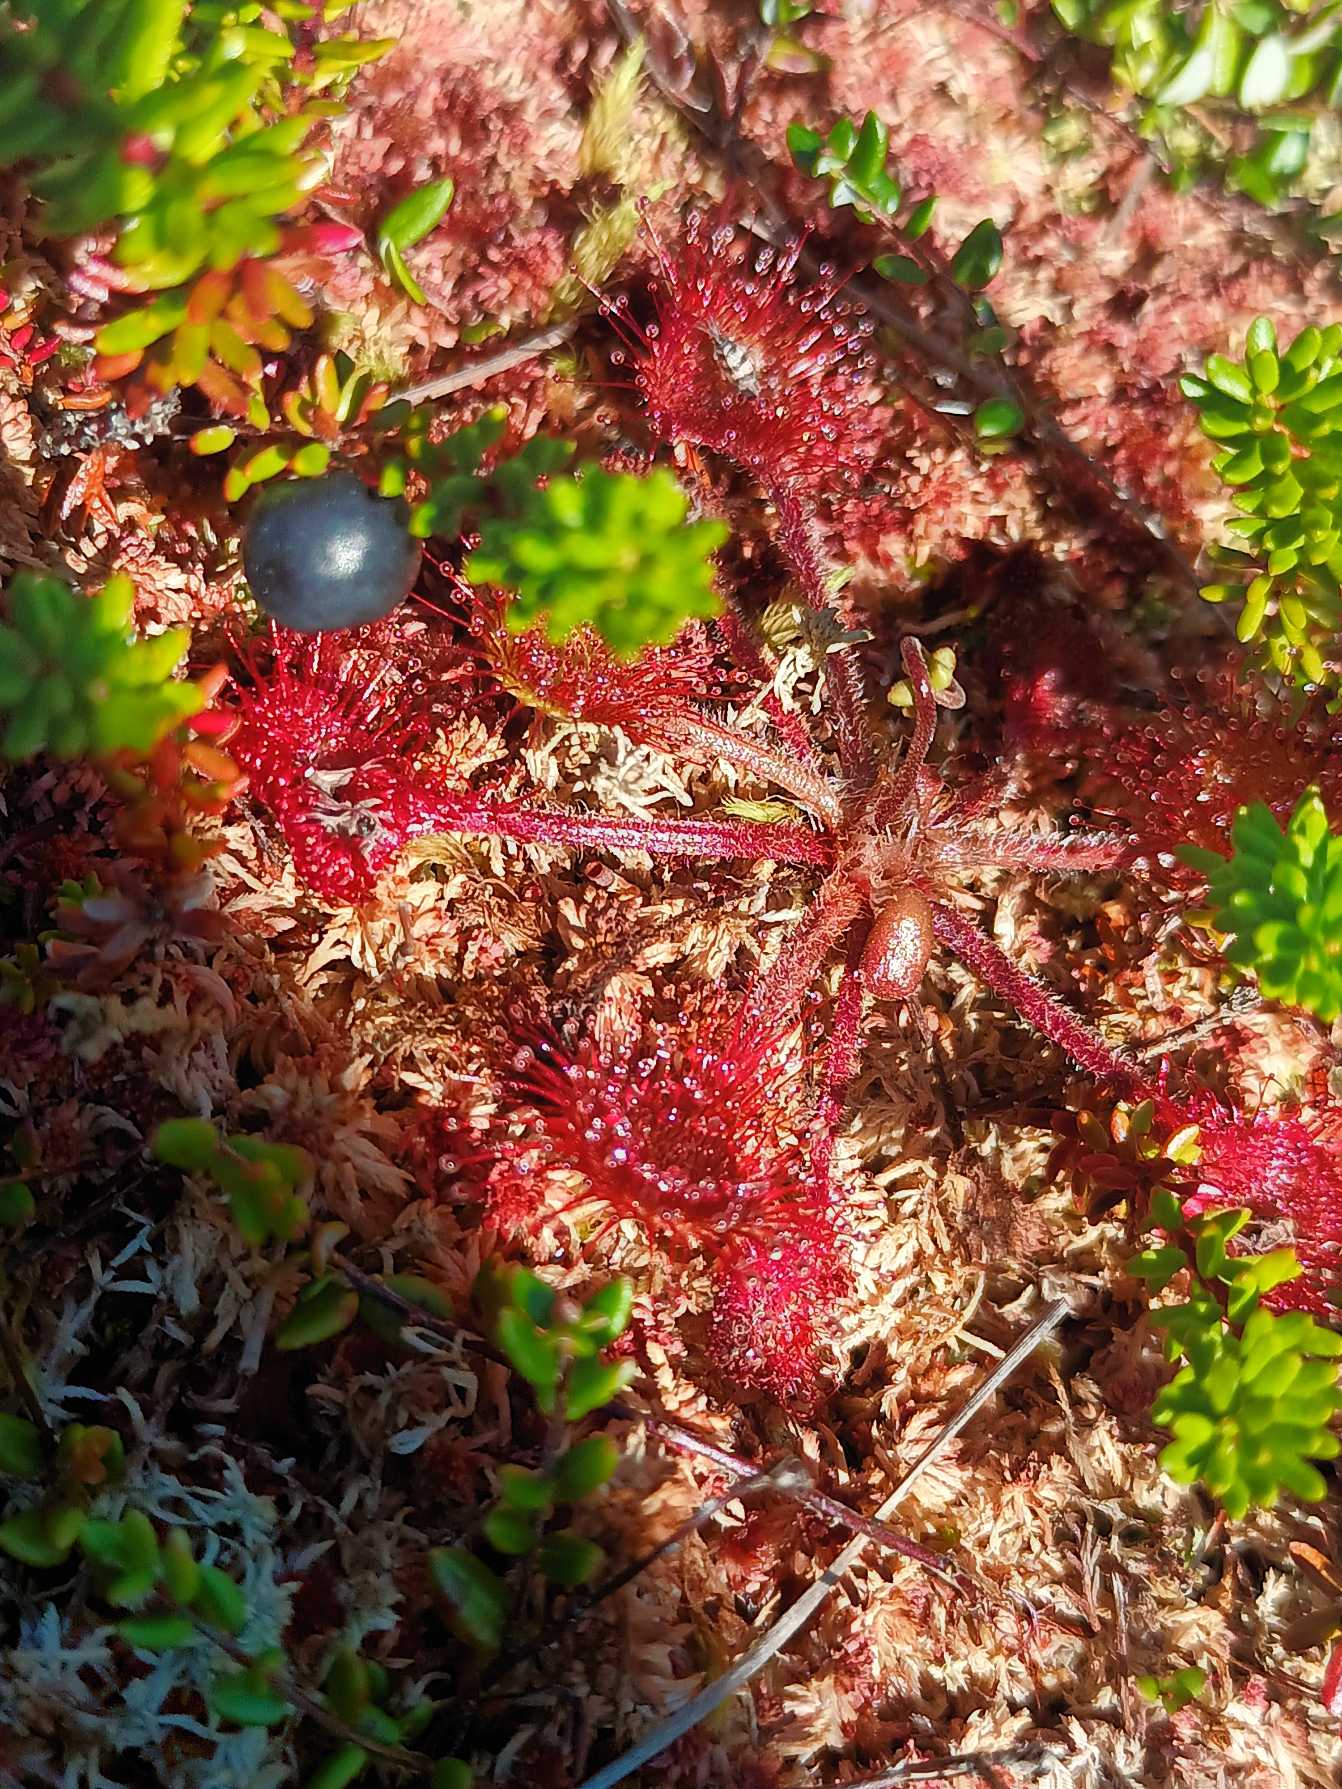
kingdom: Plantae
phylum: Tracheophyta
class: Magnoliopsida
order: Caryophyllales
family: Droseraceae
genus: Drosera
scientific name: Drosera rotundifolia
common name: Rundbladet soldug
